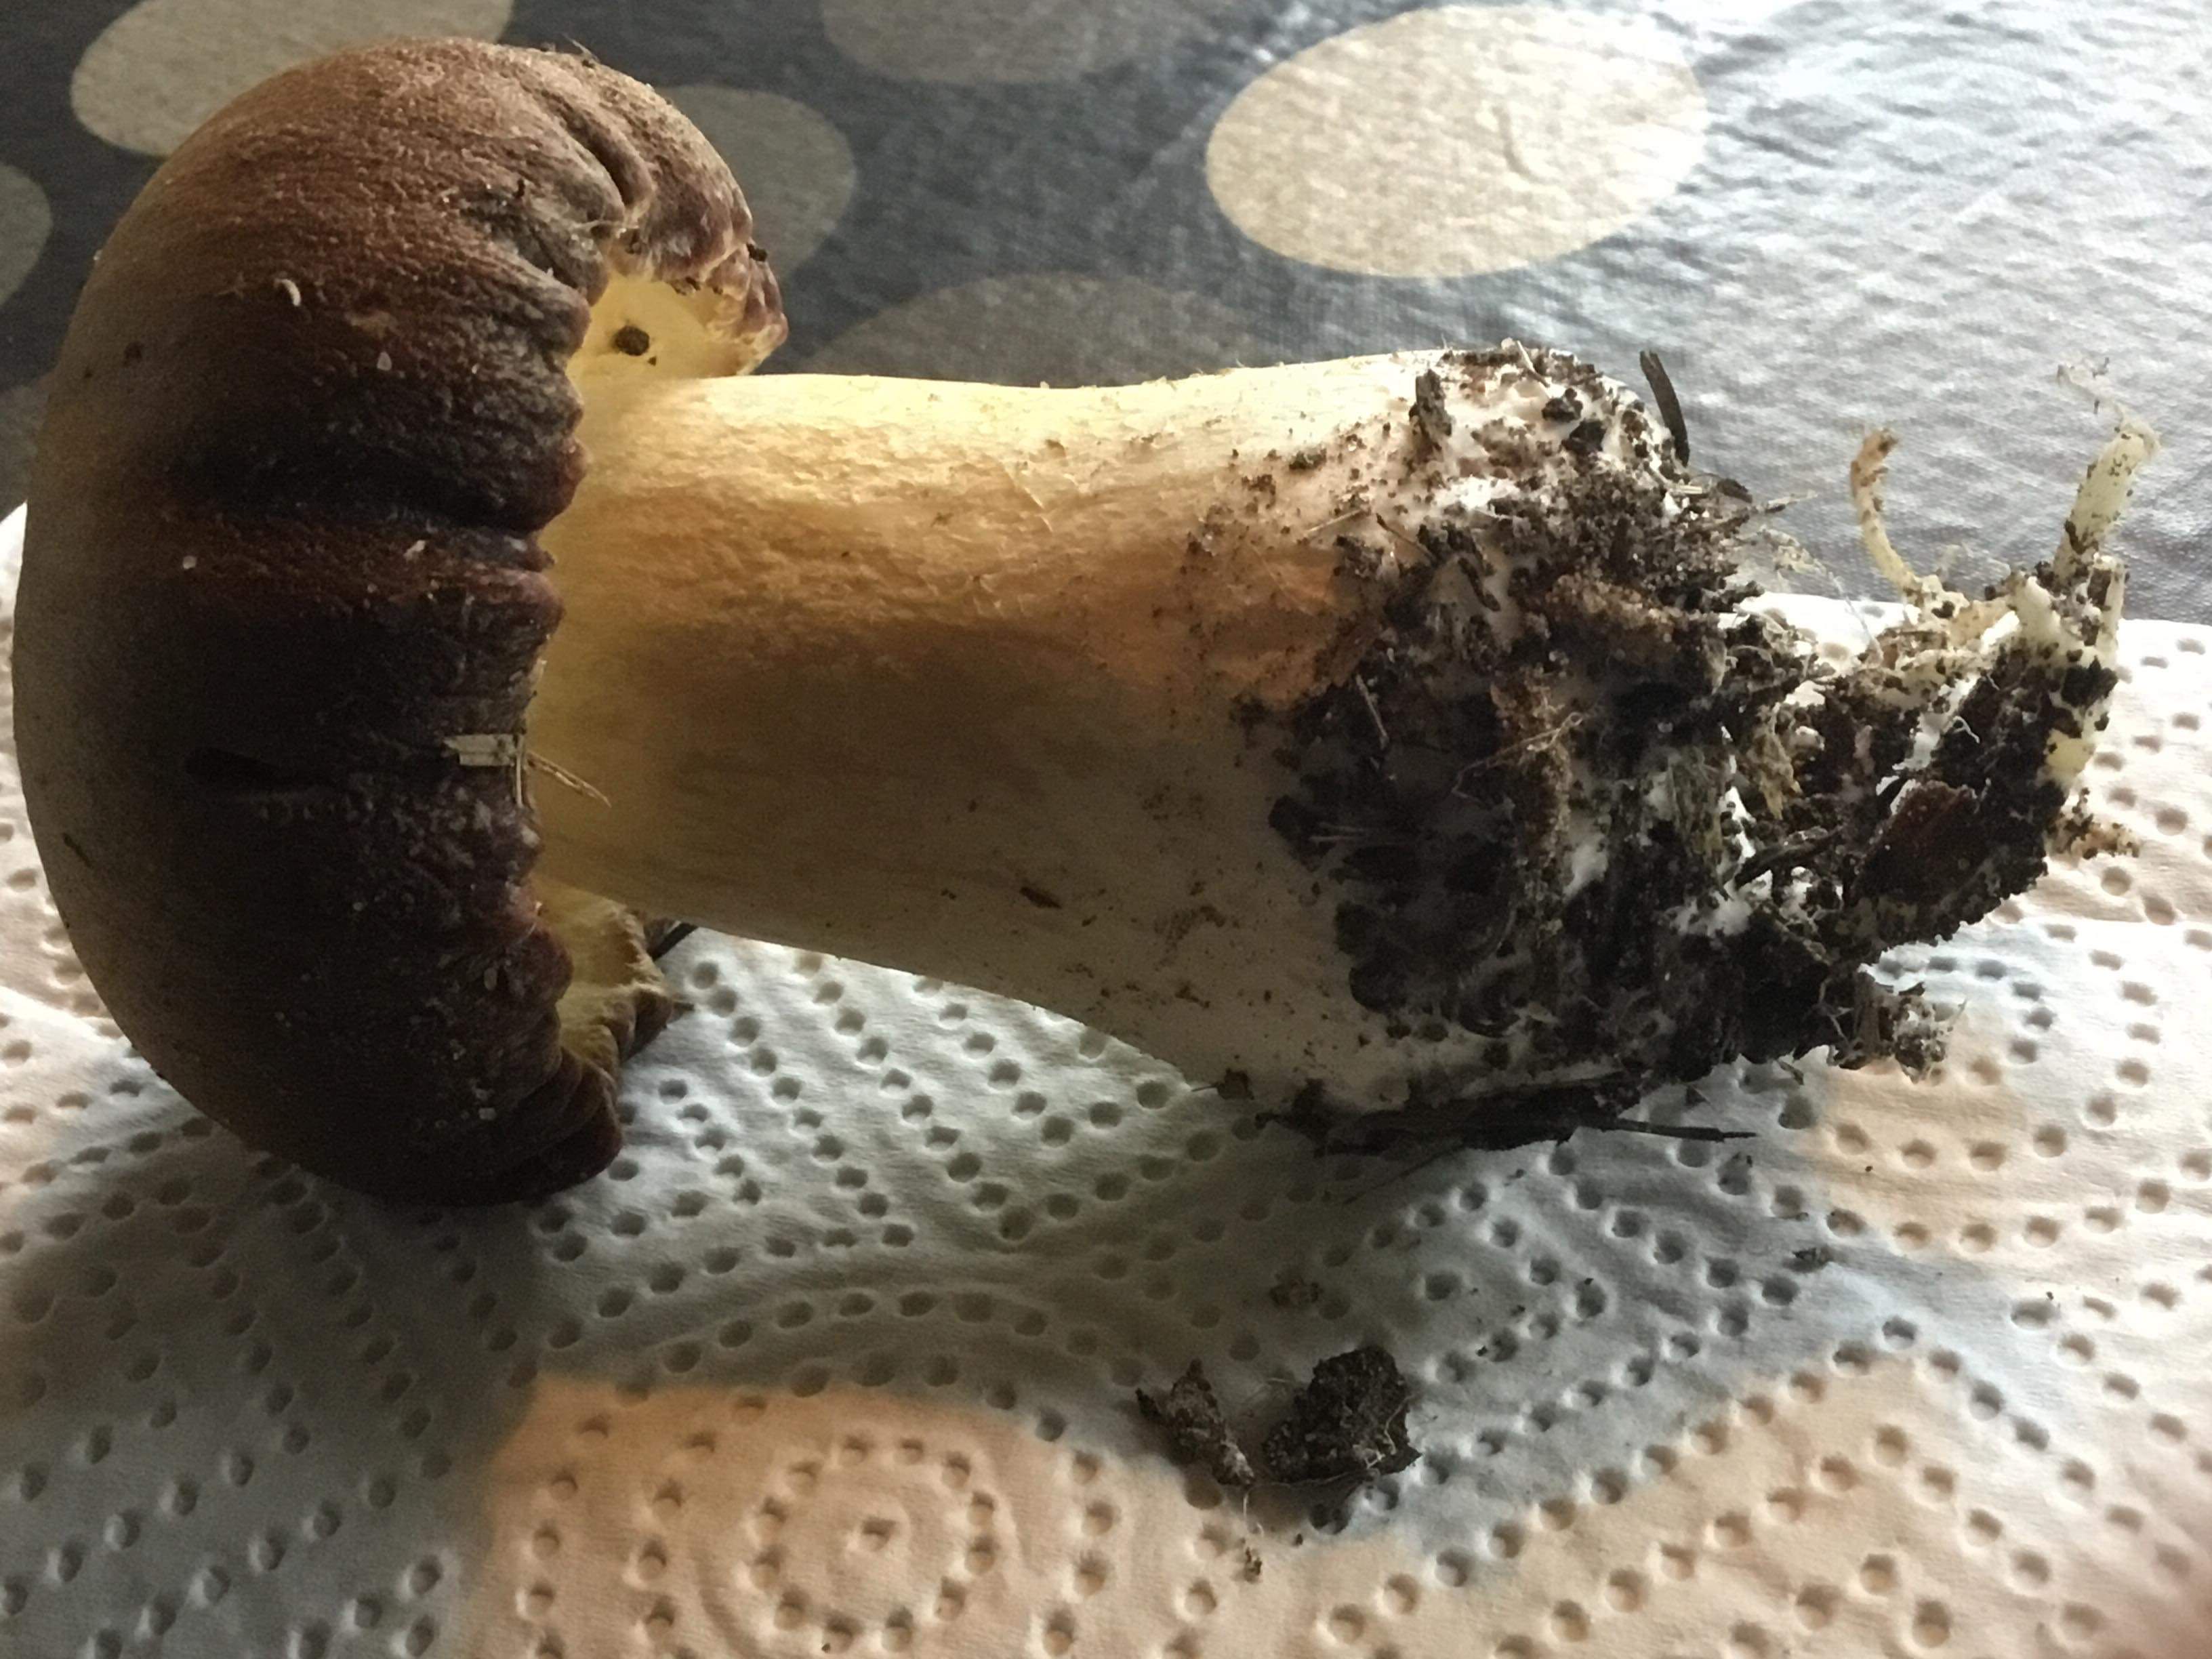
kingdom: Fungi
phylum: Basidiomycota
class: Agaricomycetes
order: Agaricales
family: Strophariaceae
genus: Stropharia
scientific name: Stropharia rugosoannulata
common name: rødbrun bredblad
